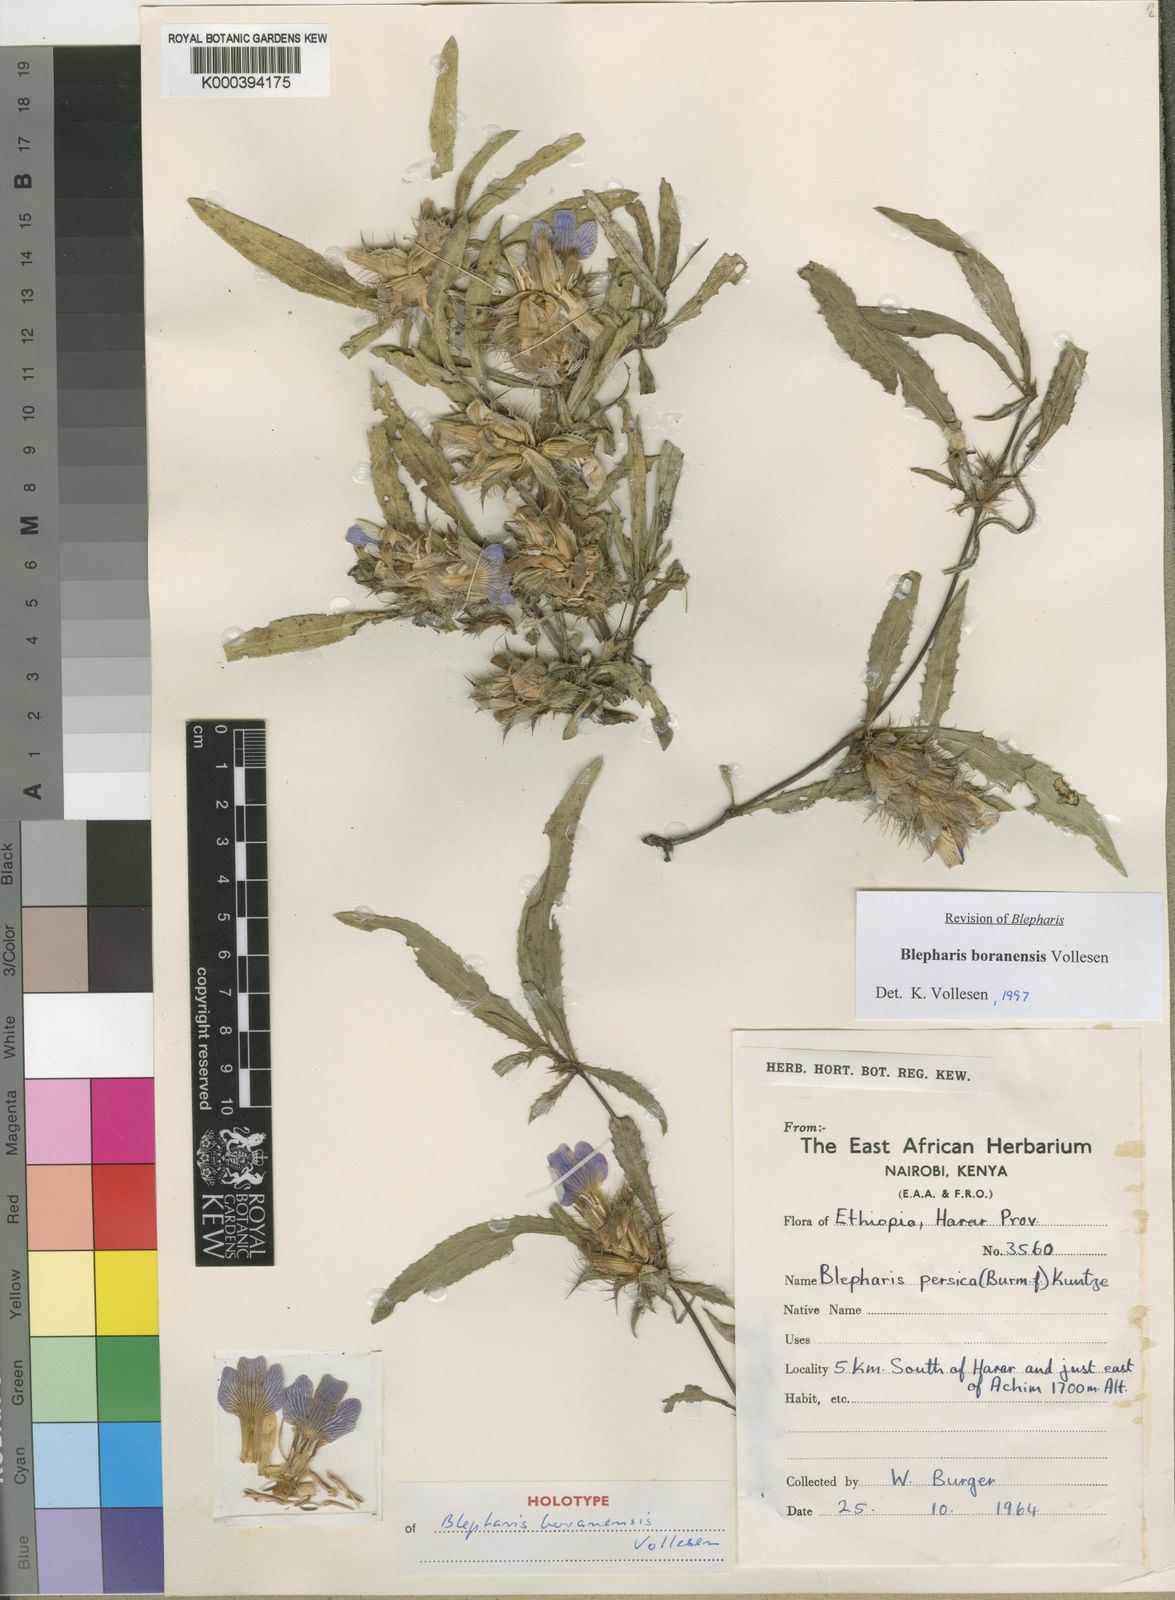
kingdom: Plantae
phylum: Tracheophyta
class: Magnoliopsida
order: Lamiales
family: Acanthaceae
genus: Blepharis
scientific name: Blepharis boranensis
